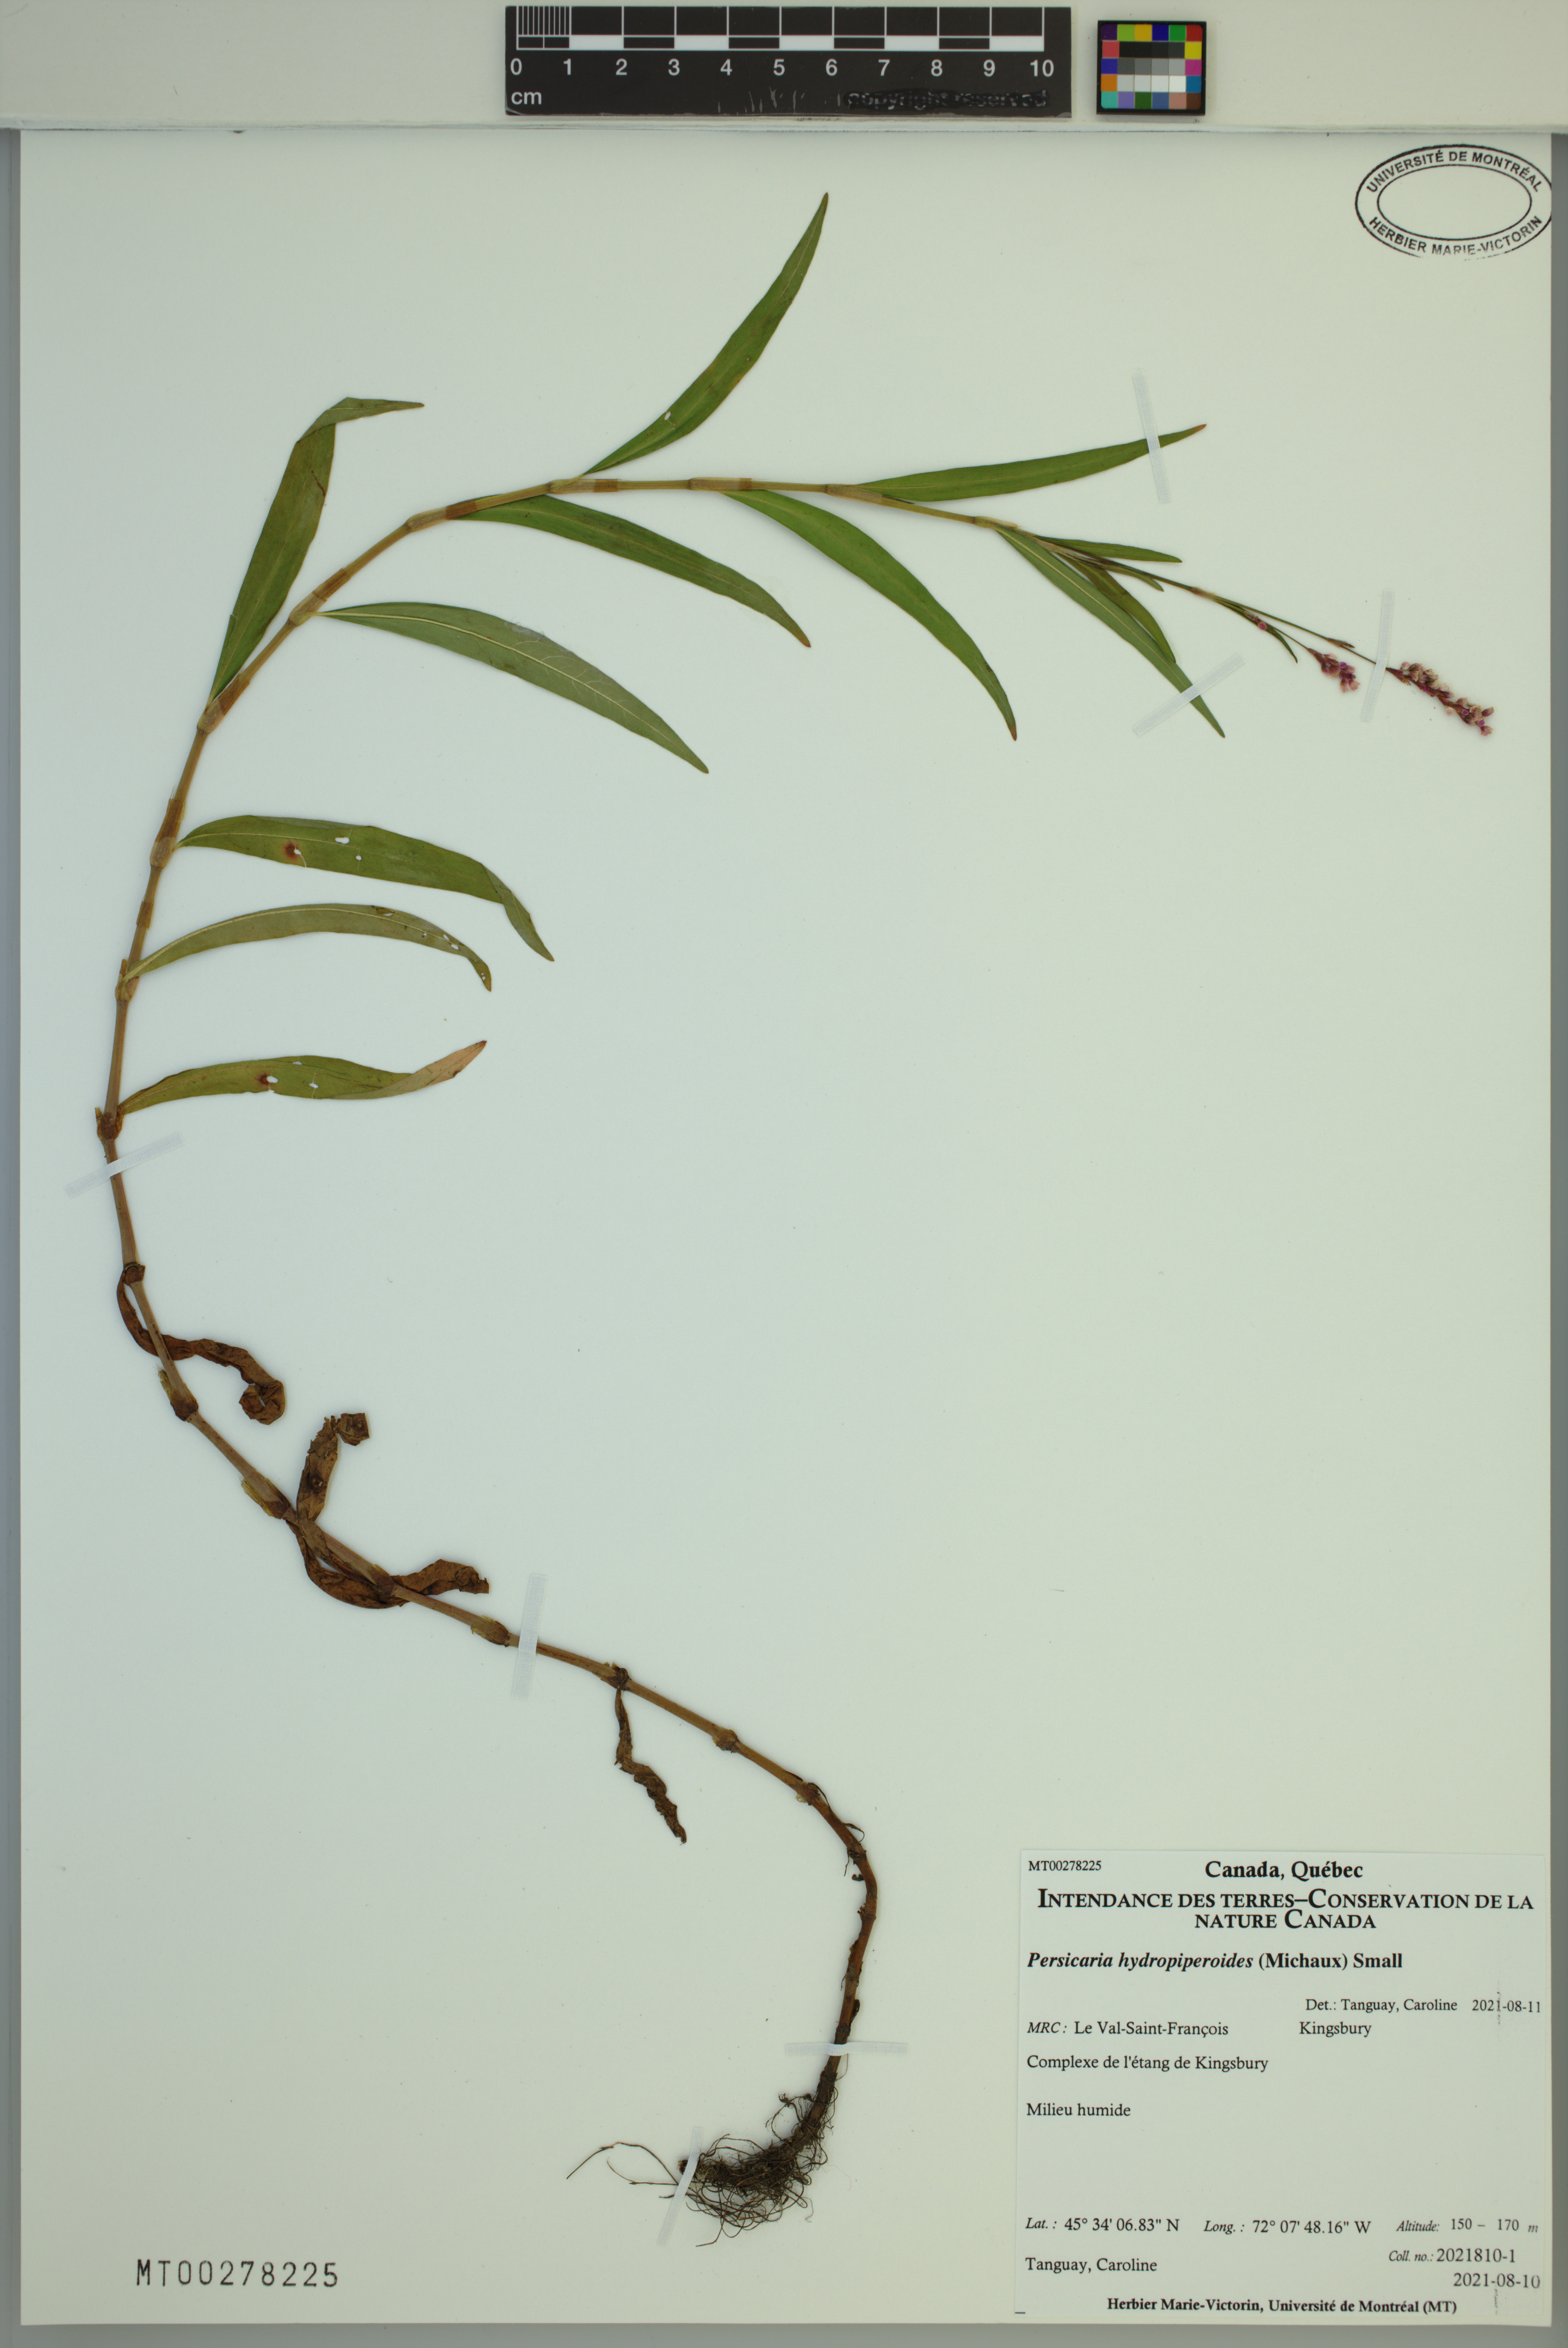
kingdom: Plantae
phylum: Tracheophyta
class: Magnoliopsida
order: Caryophyllales
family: Polygonaceae
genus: Persicaria
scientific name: Persicaria hydropiperoides
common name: Swamp smartweed
